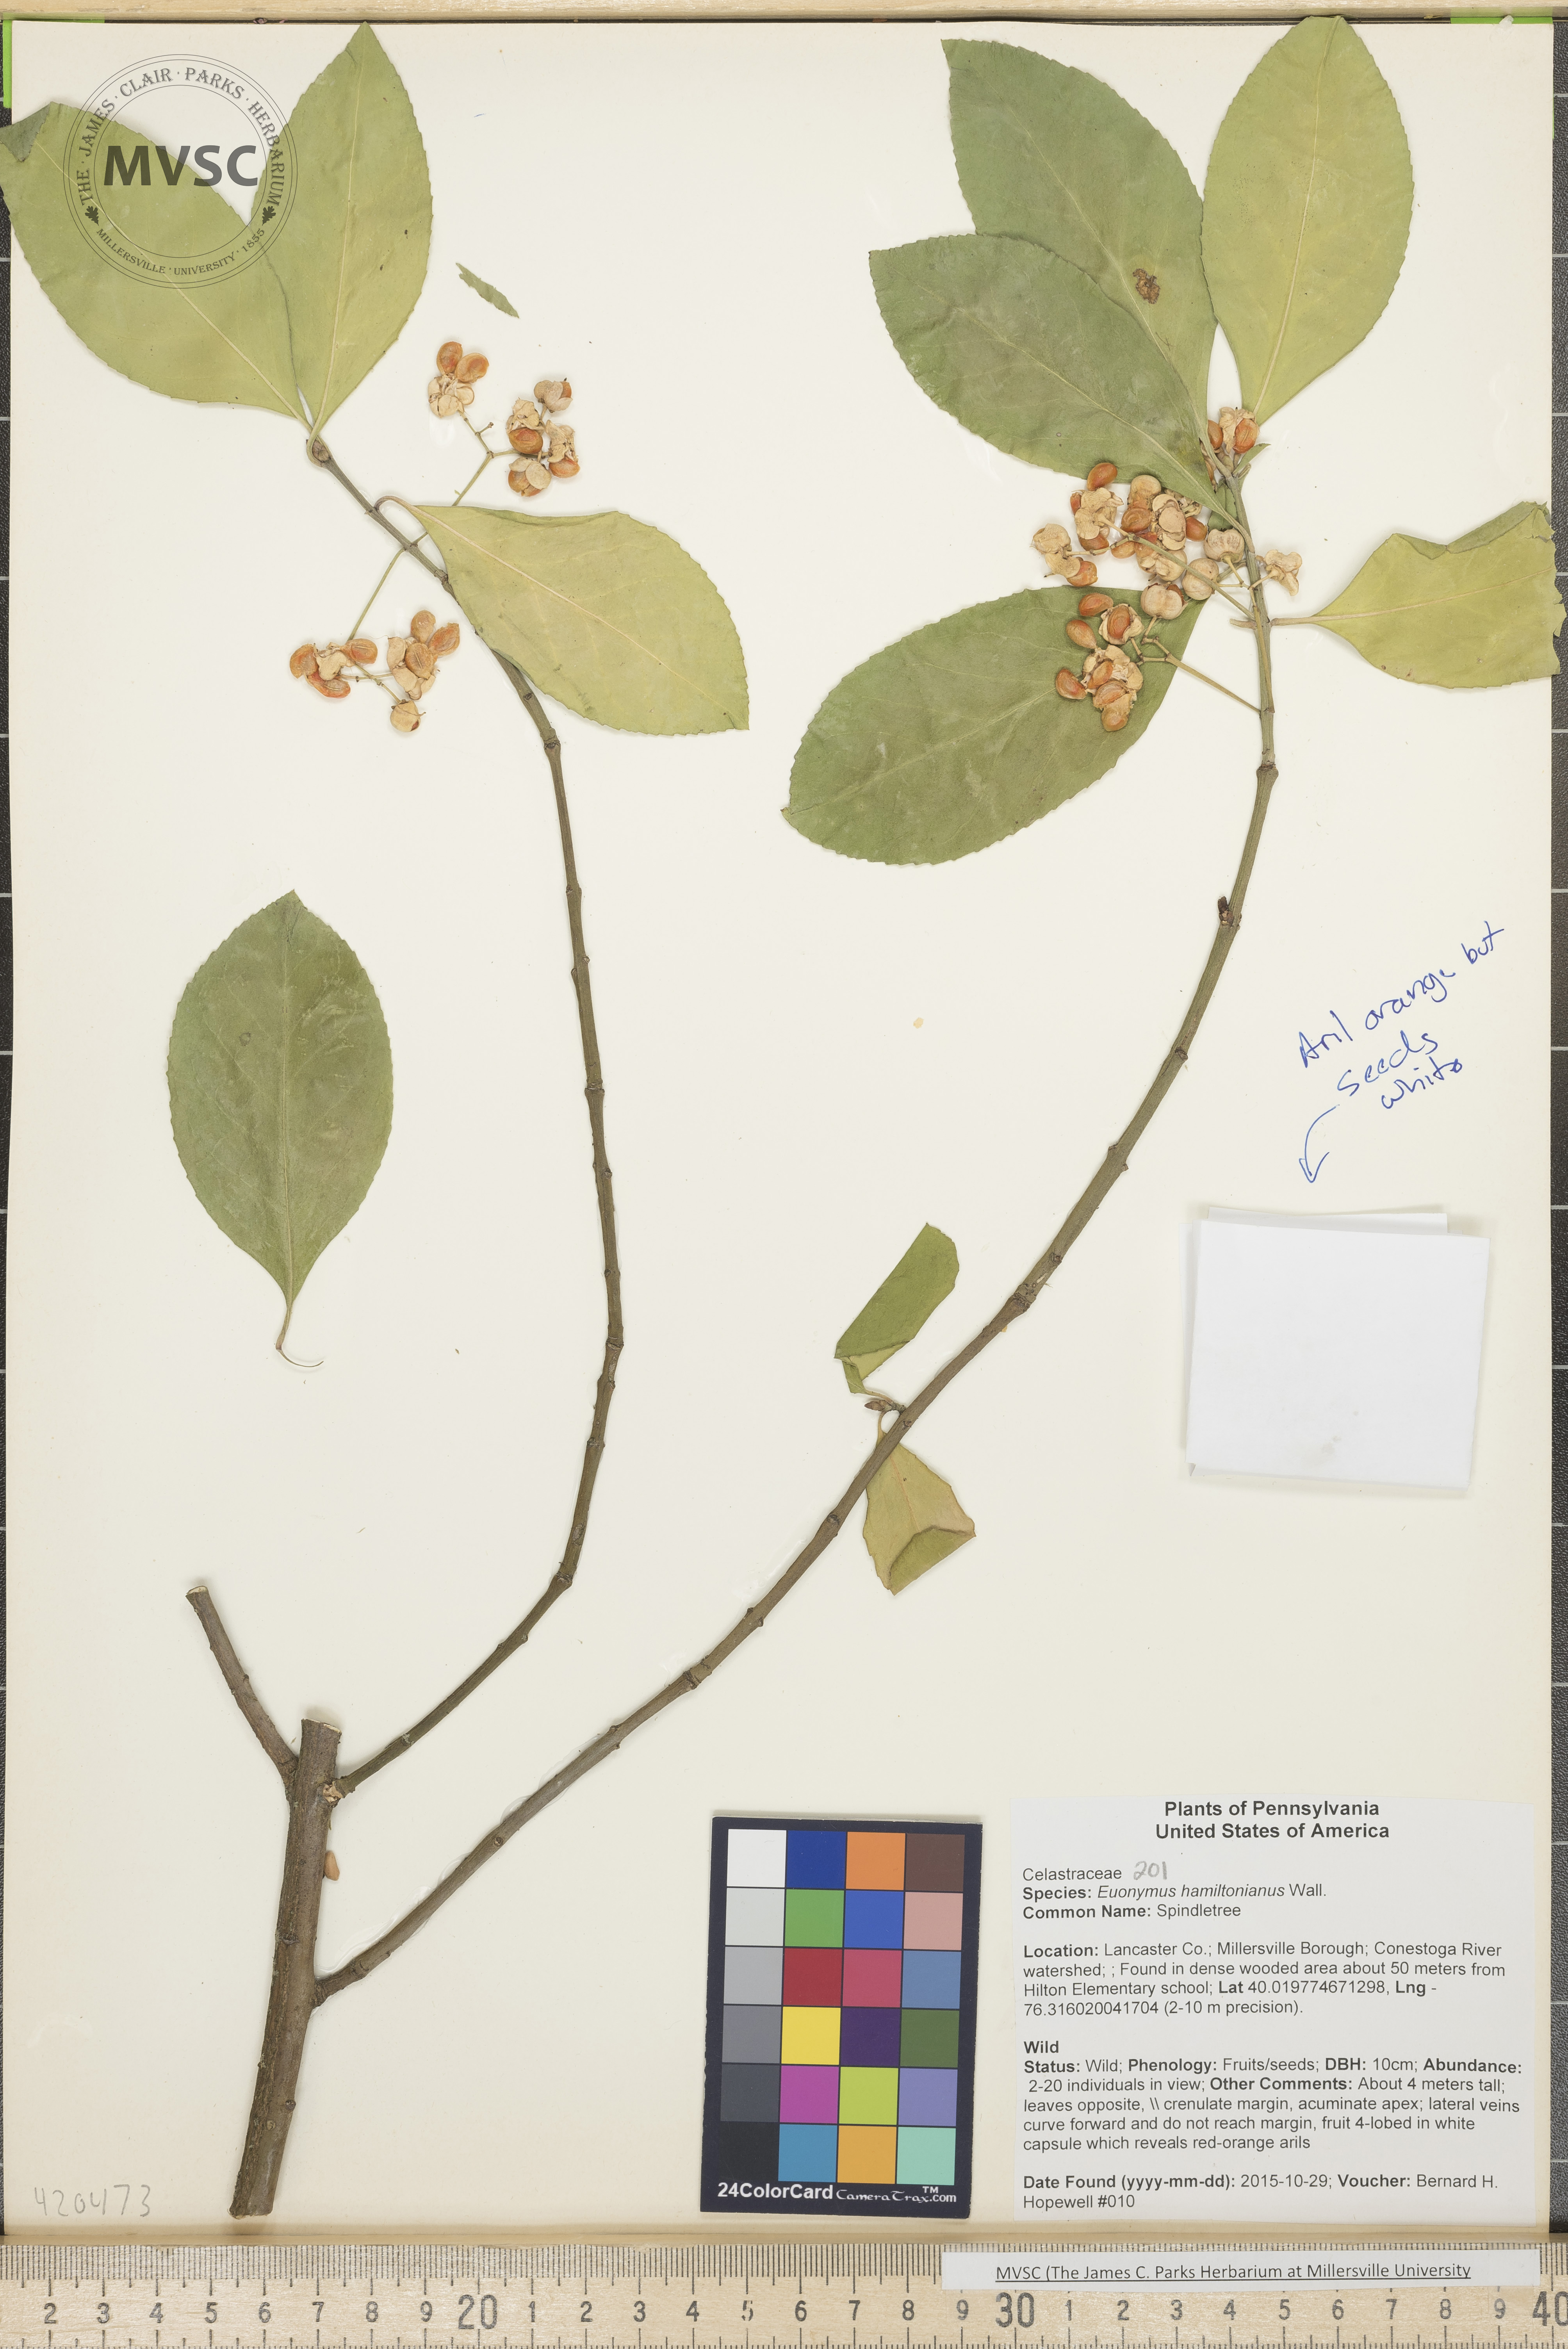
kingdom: Plantae
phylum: Tracheophyta
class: Magnoliopsida
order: Celastrales
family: Celastraceae
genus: Euonymus
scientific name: Euonymus japonicus
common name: Spindletree
